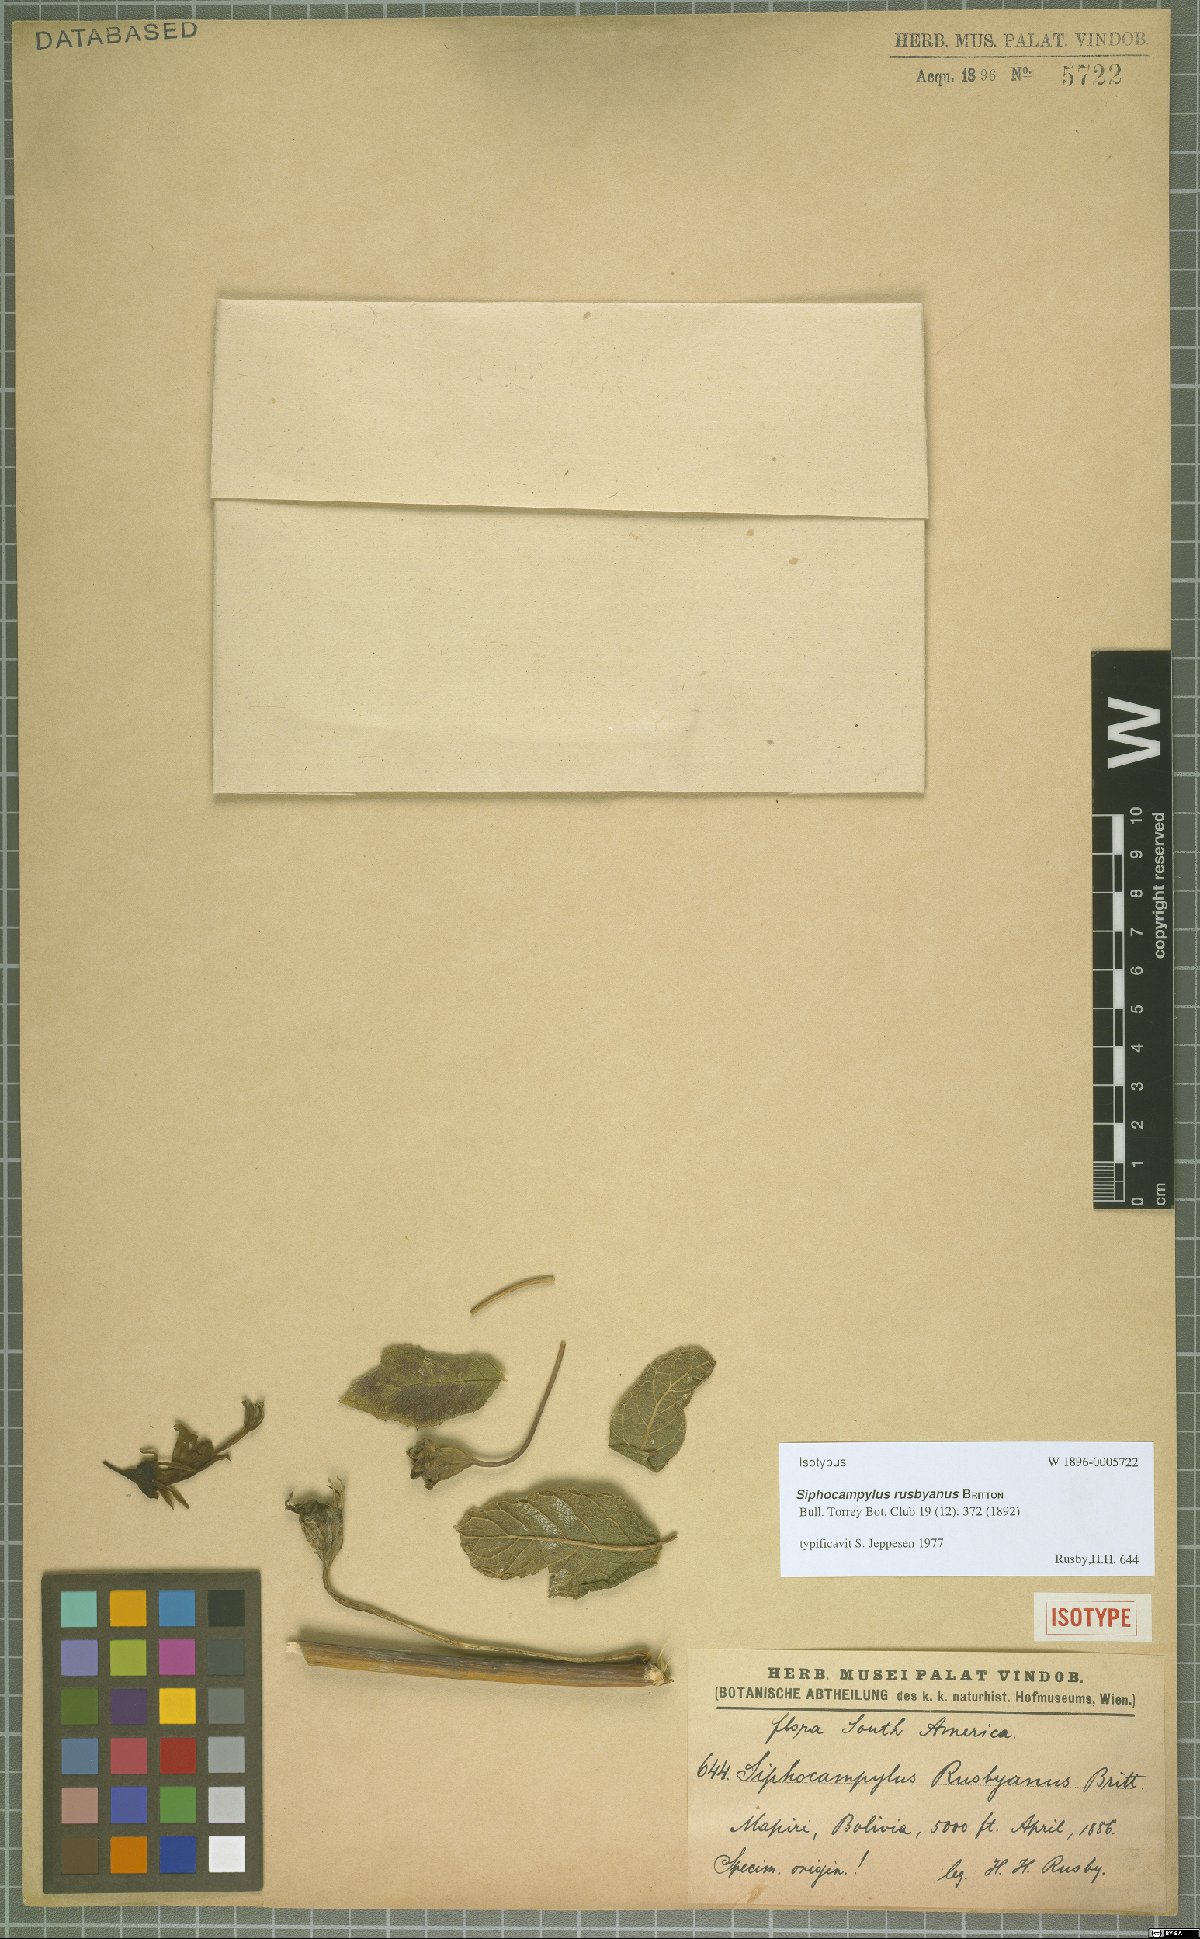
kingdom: Plantae
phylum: Tracheophyta
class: Magnoliopsida
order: Asterales
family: Campanulaceae
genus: Siphocampylus
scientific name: Siphocampylus rusbyanus
